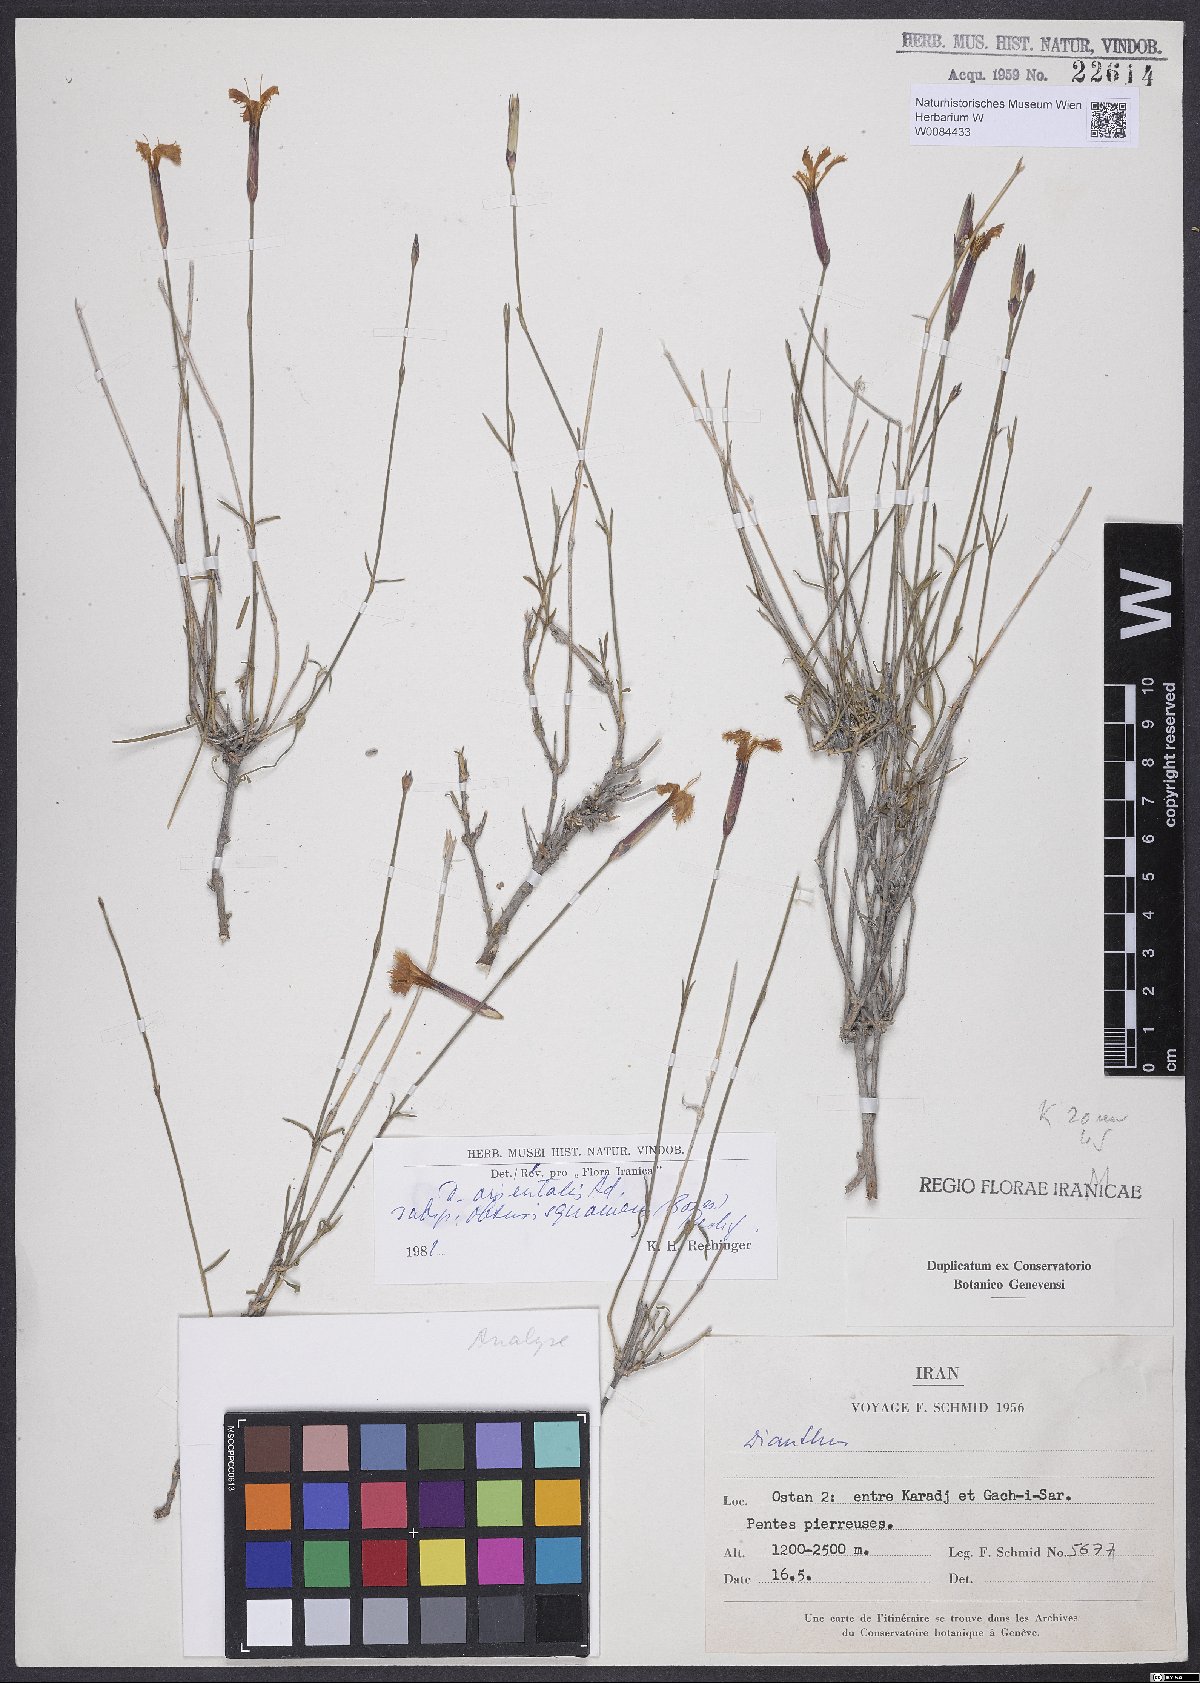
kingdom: Plantae
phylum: Tracheophyta
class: Magnoliopsida
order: Caryophyllales
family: Caryophyllaceae
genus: Dianthus
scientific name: Dianthus orientalis
